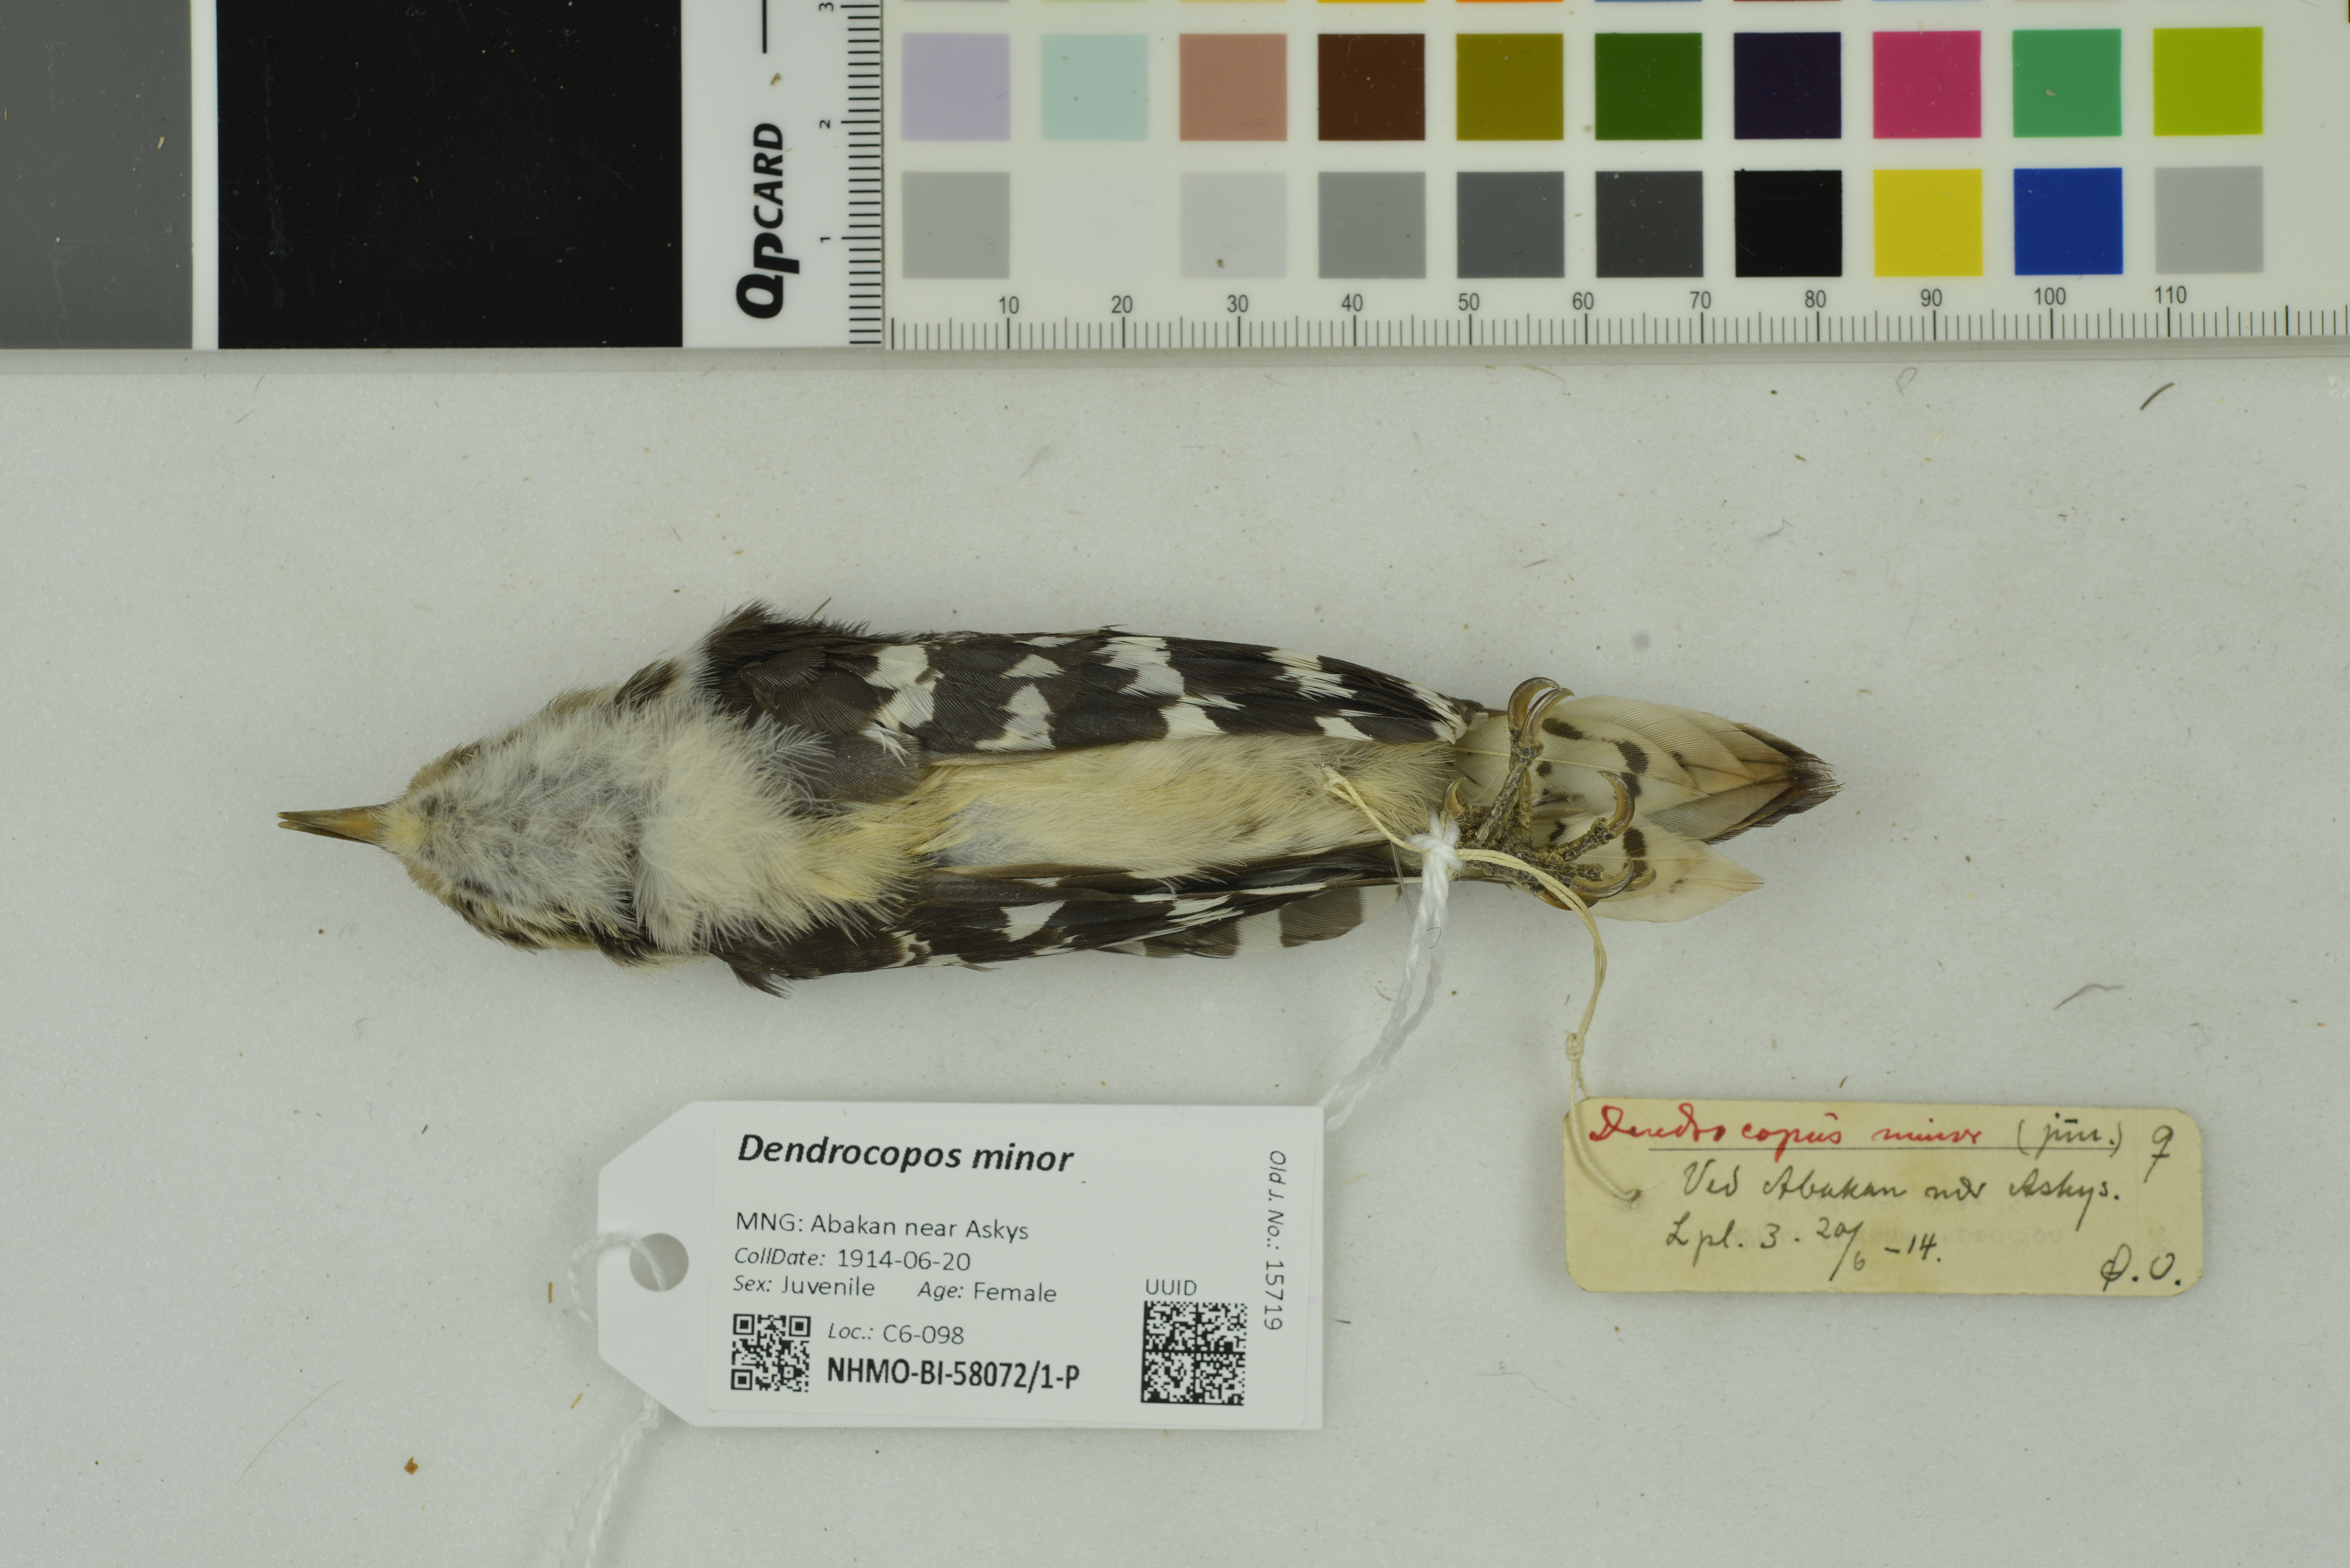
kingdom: Animalia
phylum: Chordata
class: Aves
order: Piciformes
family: Picidae
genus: Dryobates
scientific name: Dryobates minor
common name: Lesser spotted woodpecker
